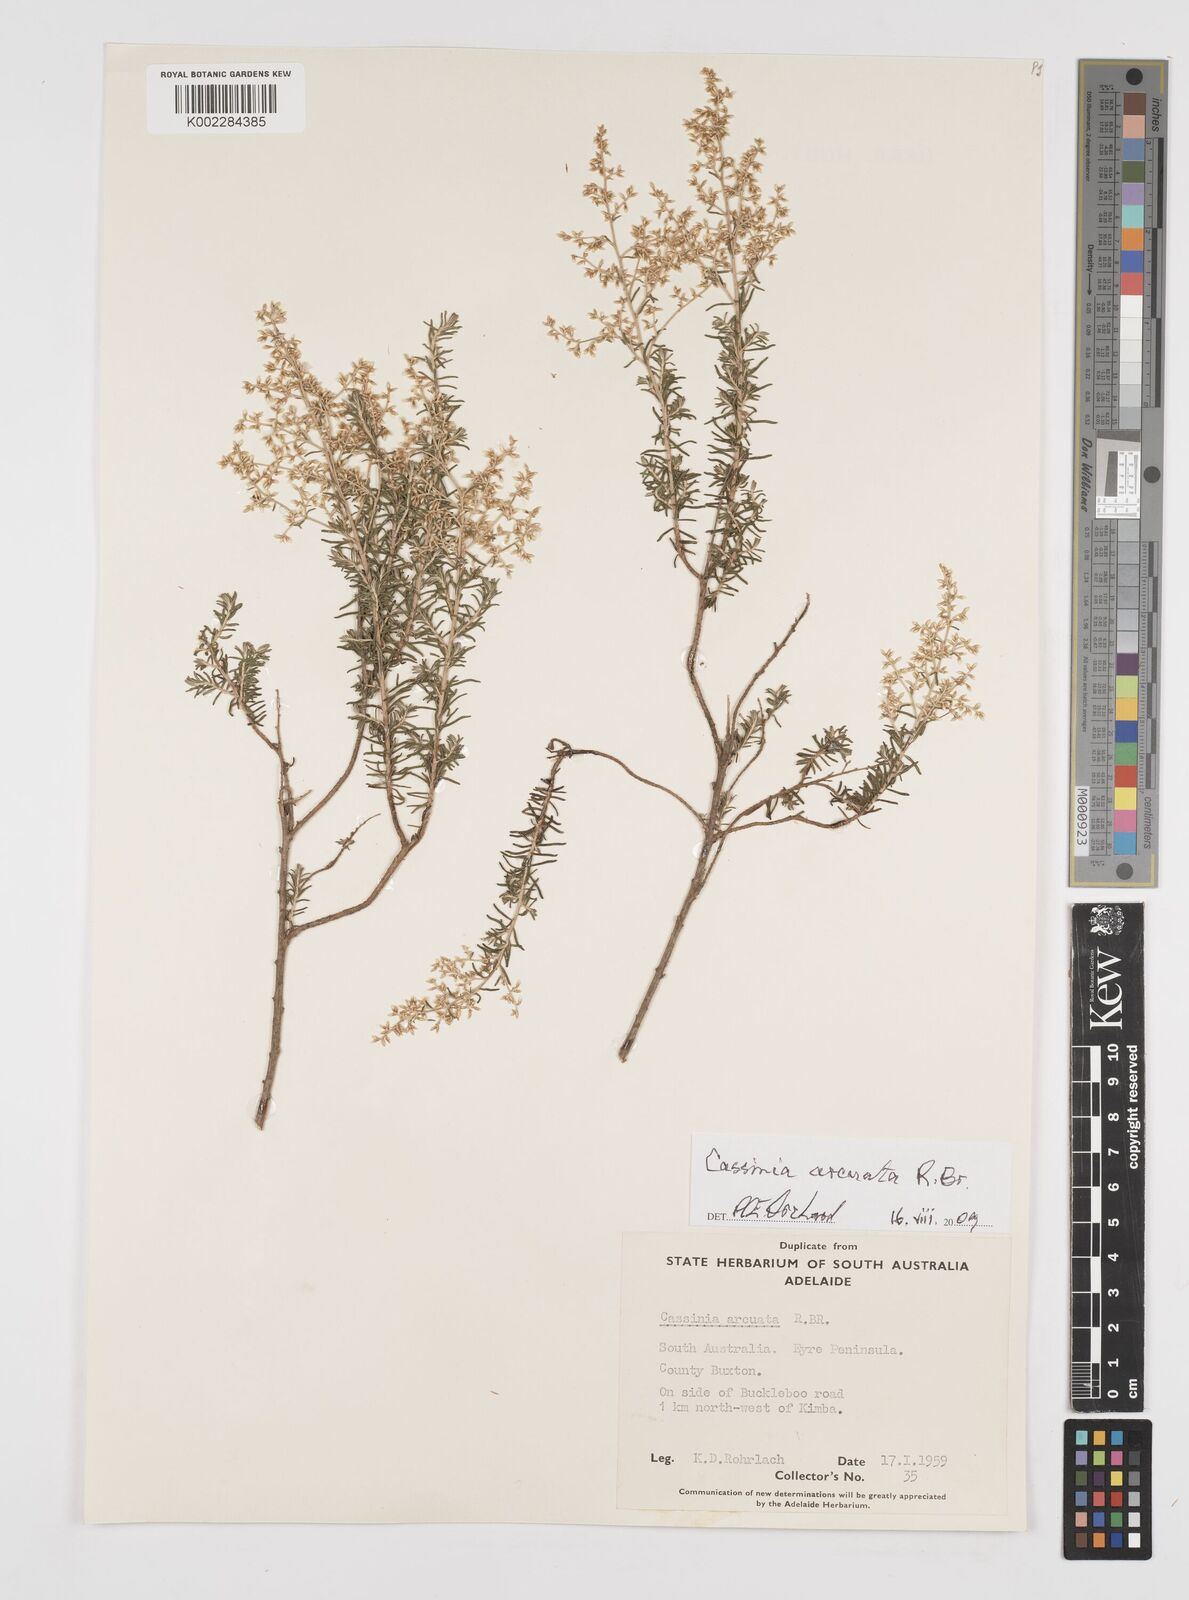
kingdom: Plantae
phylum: Tracheophyta
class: Magnoliopsida
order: Asterales
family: Asteraceae
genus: Cassinia
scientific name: Cassinia arcuata
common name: Chineseshrub
